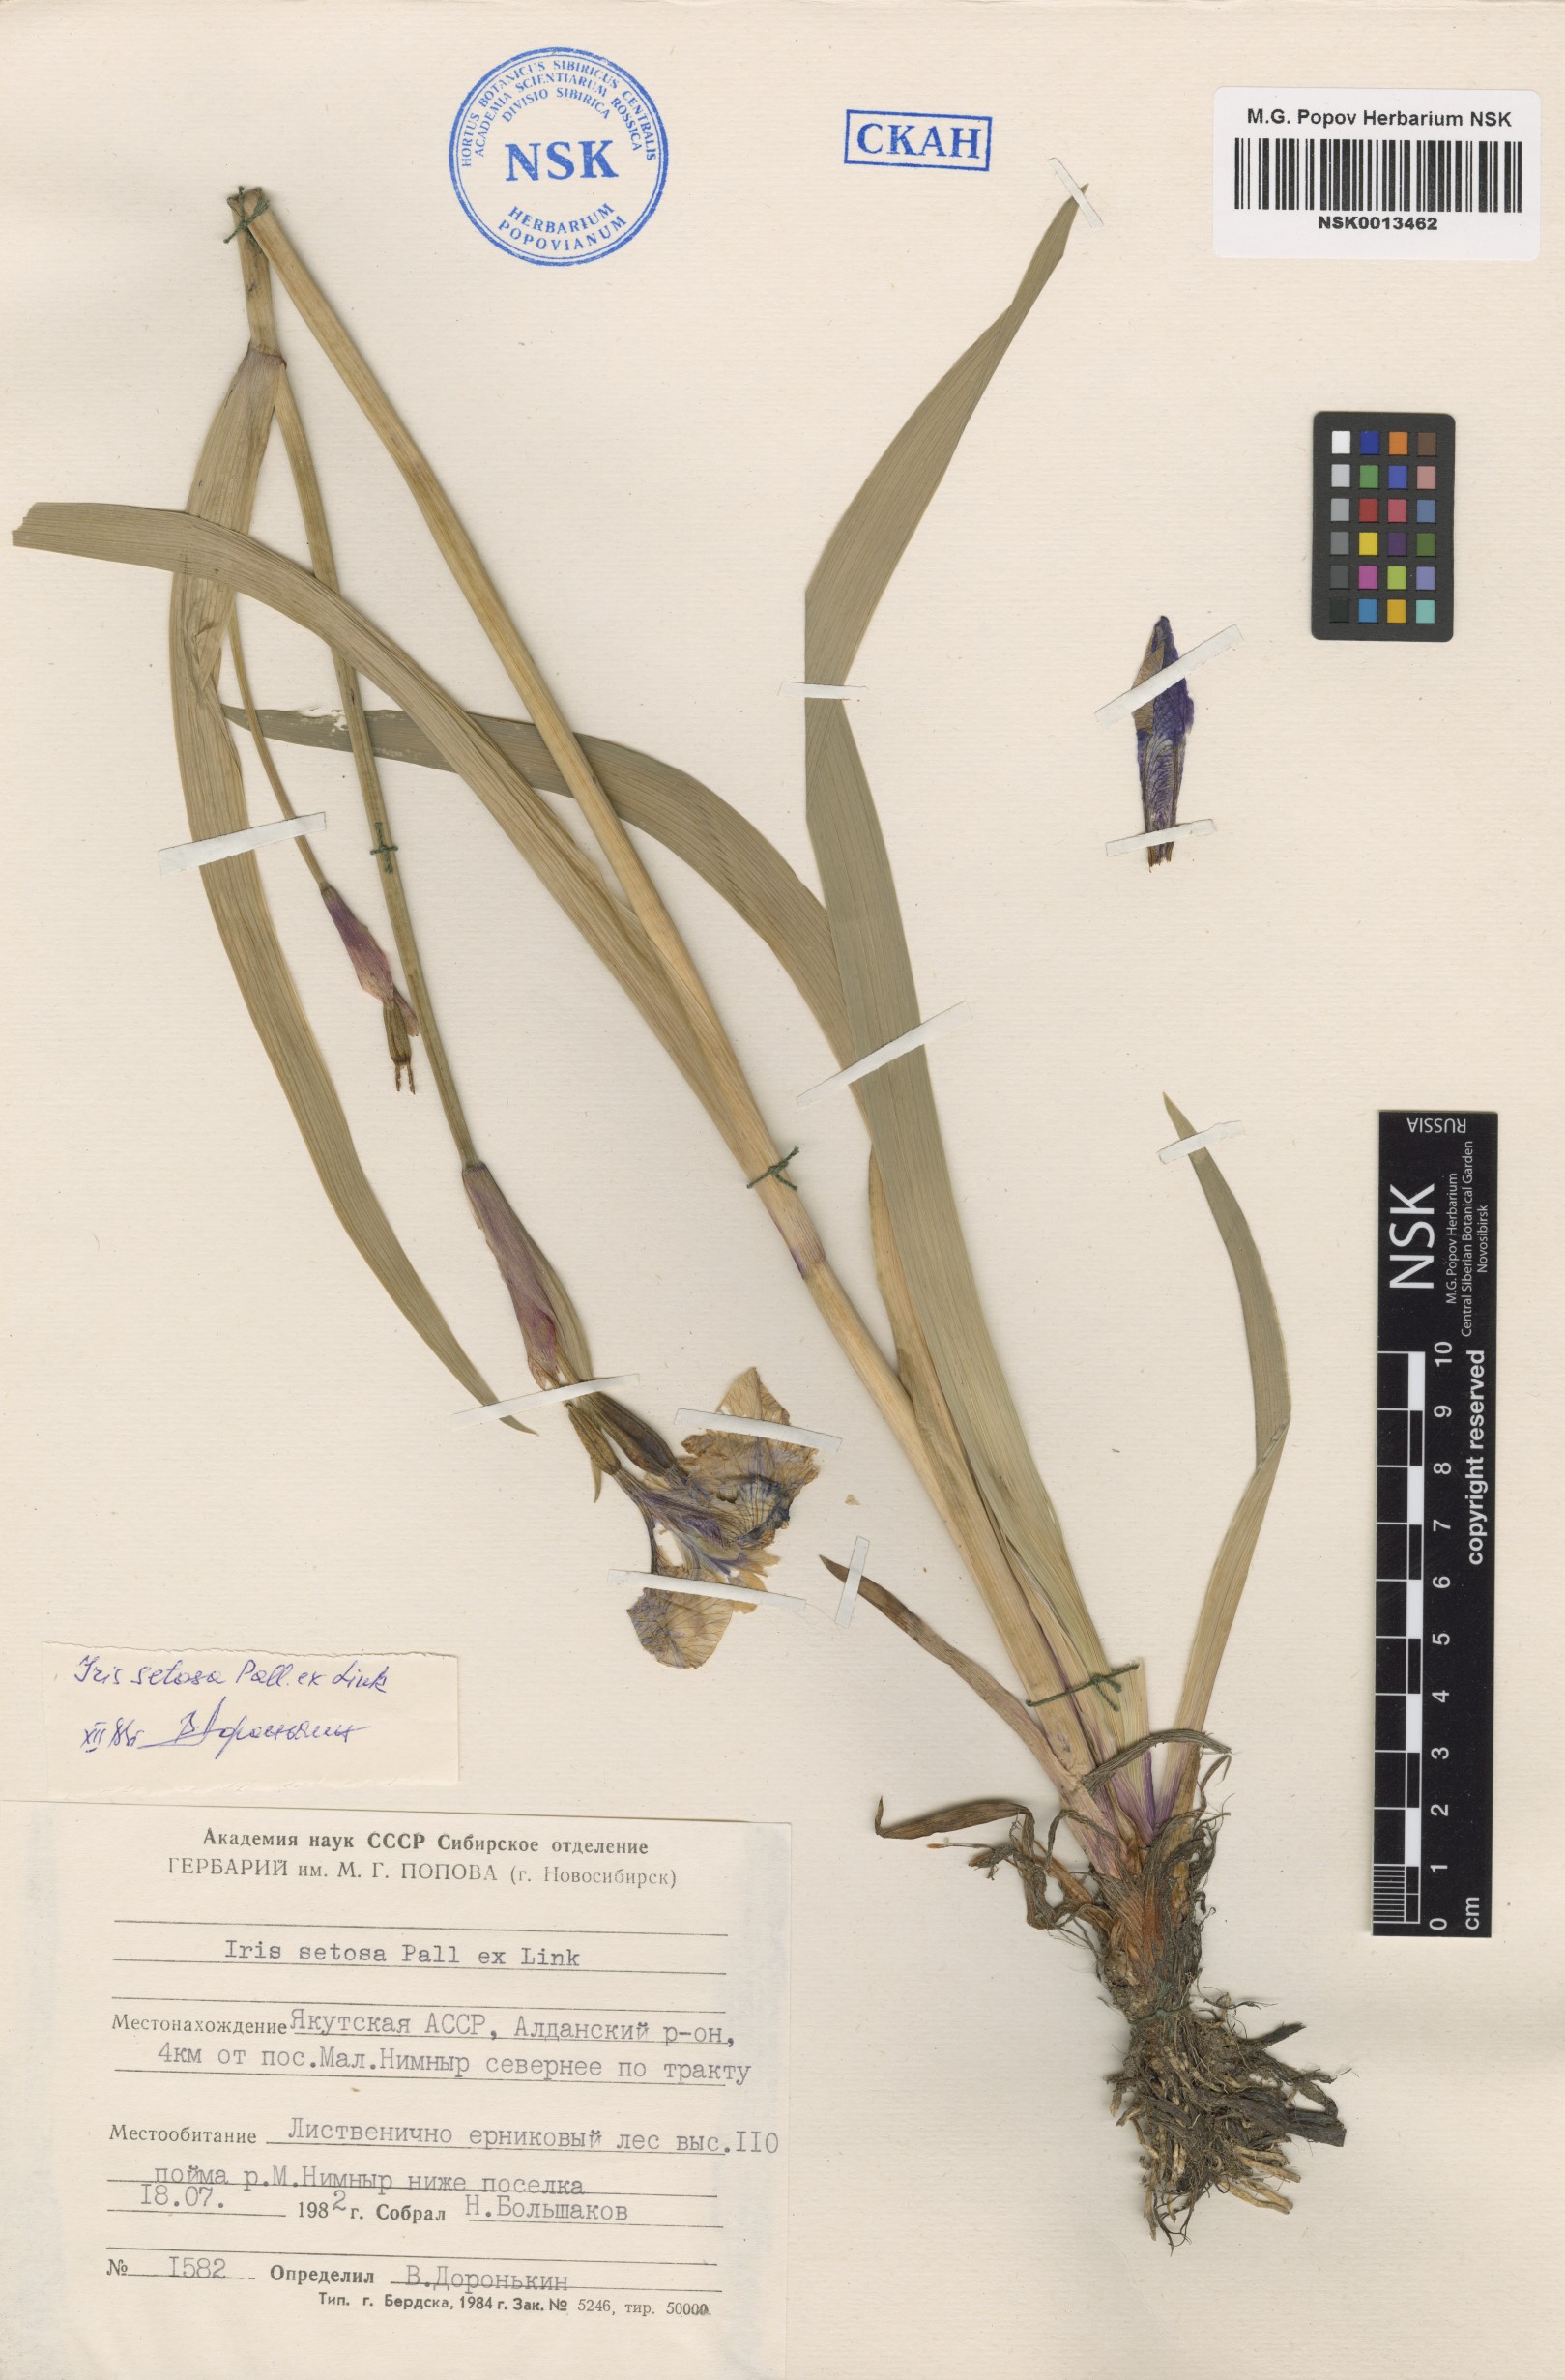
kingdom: Plantae
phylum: Tracheophyta
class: Liliopsida
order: Asparagales
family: Iridaceae
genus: Iris
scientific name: Iris setosa
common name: Arctic blue flag
